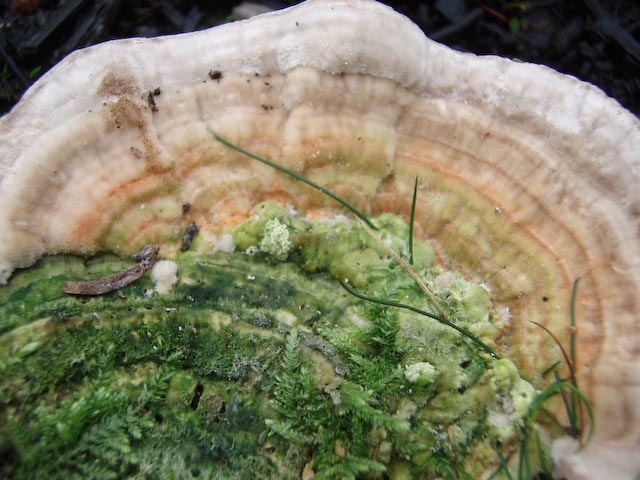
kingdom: Fungi
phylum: Basidiomycota
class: Agaricomycetes
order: Polyporales
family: Polyporaceae
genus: Lenzites
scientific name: Lenzites betulinus
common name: birke-læderporesvamp
